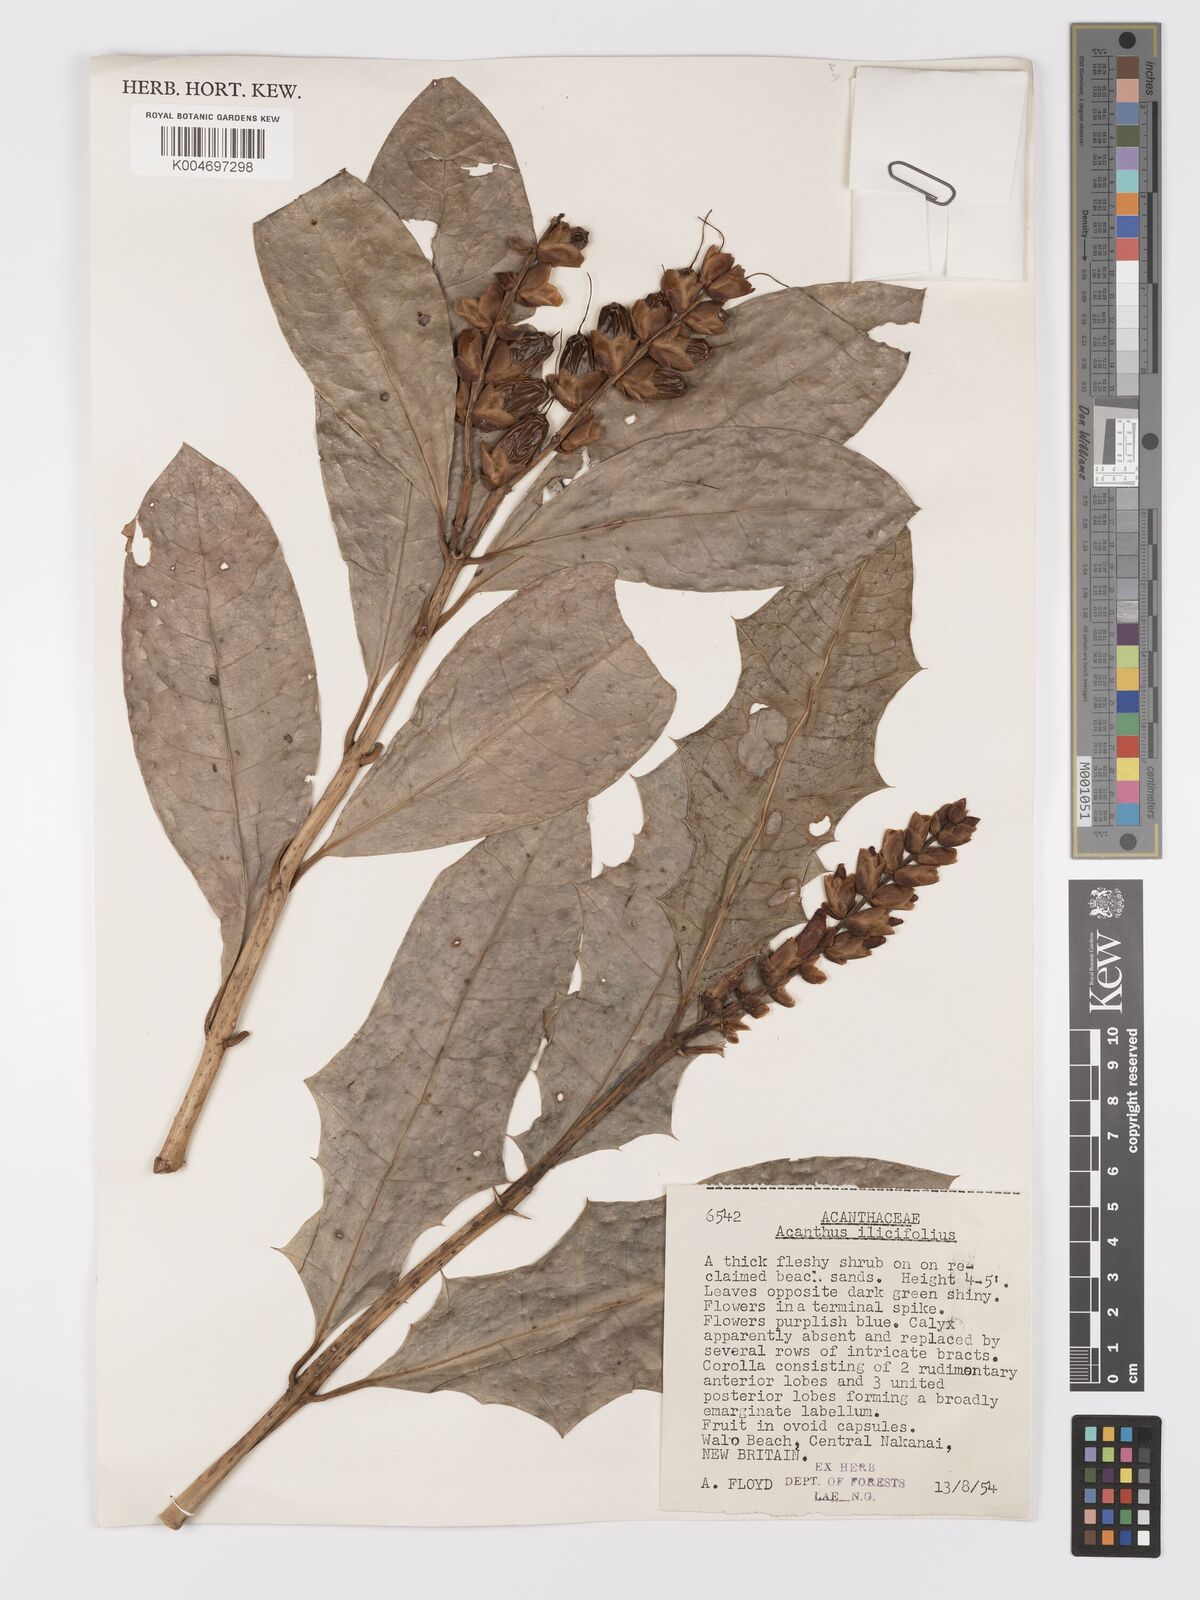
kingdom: Plantae
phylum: Tracheophyta
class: Magnoliopsida
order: Lamiales
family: Acanthaceae
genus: Acanthus
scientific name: Acanthus ilicifolius
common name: Holy mangrove
